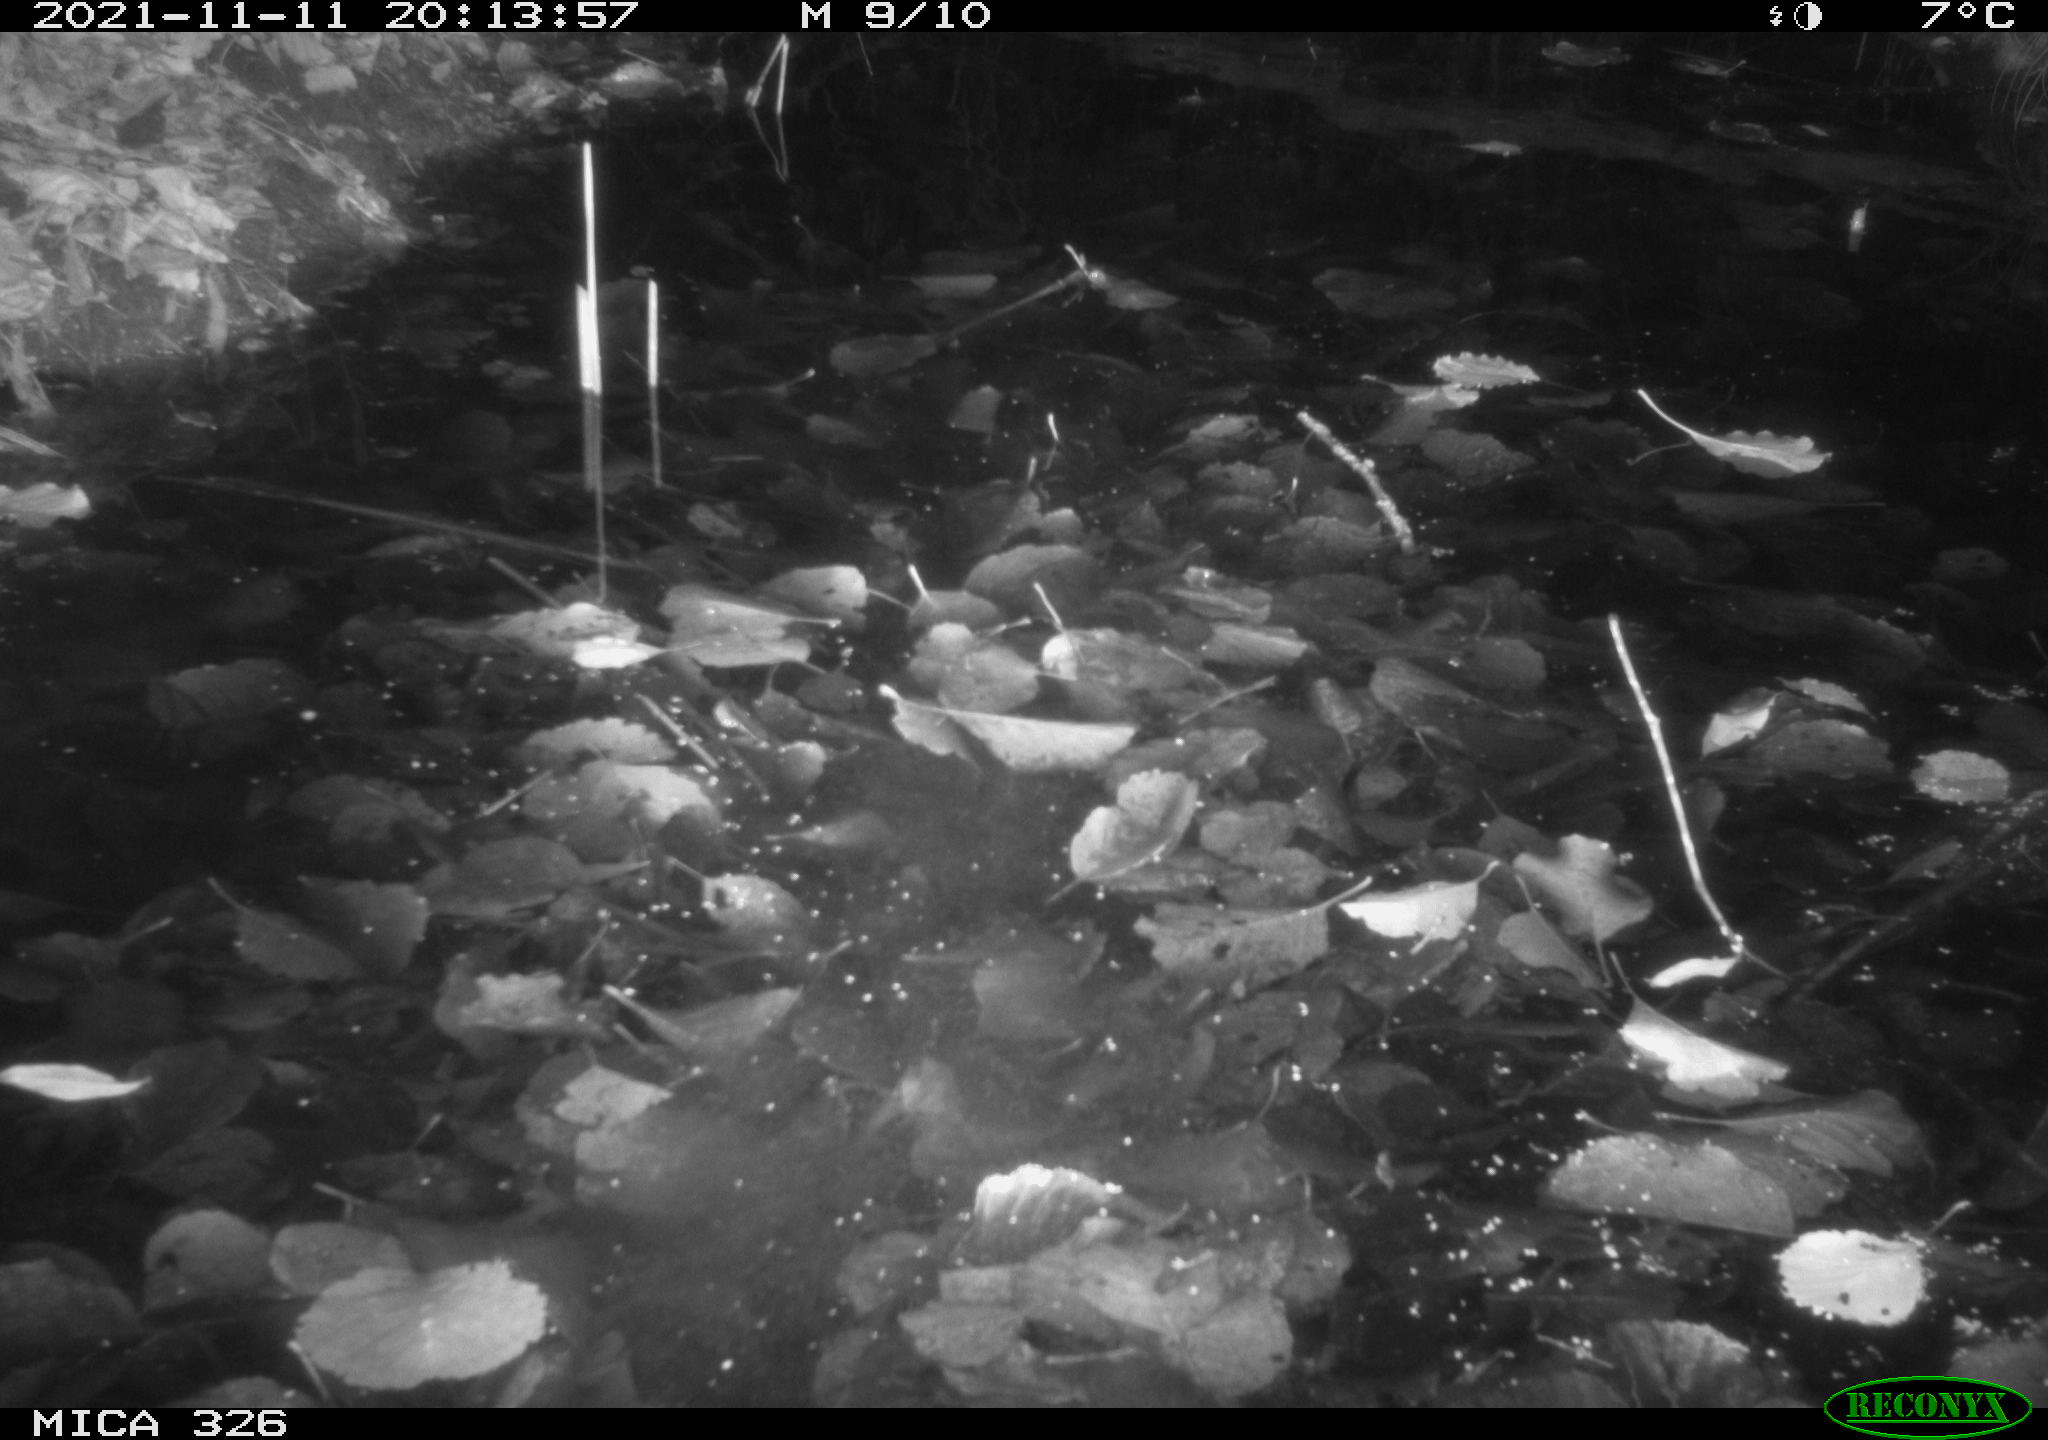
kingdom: Animalia
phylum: Chordata
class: Mammalia
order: Rodentia
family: Myocastoridae
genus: Myocastor
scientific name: Myocastor coypus
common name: Coypu
